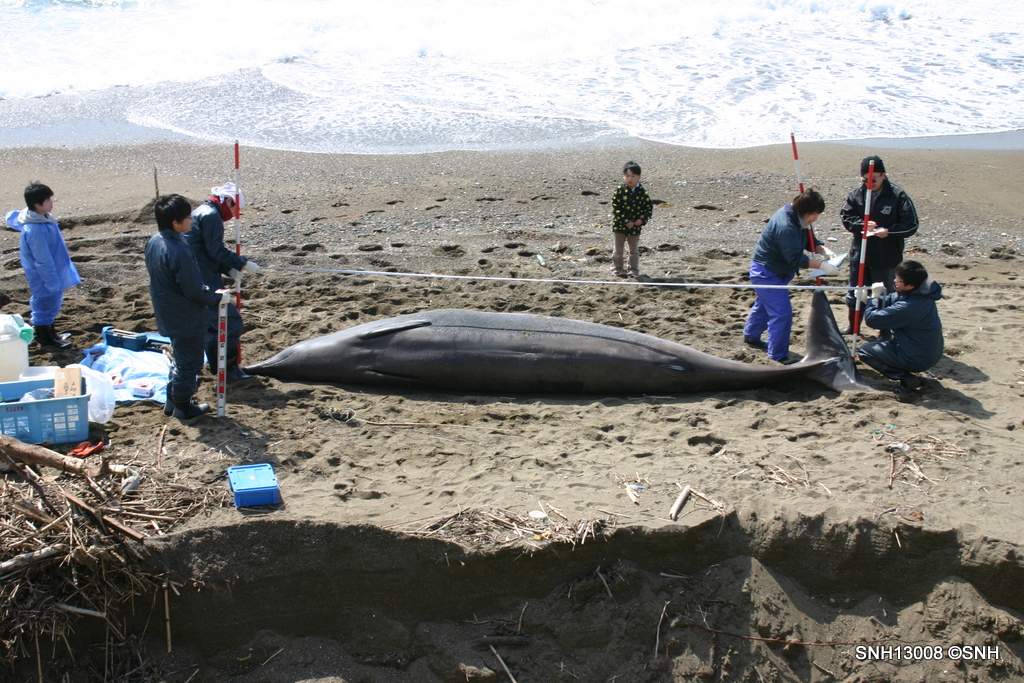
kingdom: Animalia
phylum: Chordata
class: Mammalia
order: Cetacea
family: Hyperoodontidae
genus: Mesoplodon
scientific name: Mesoplodon stejnegeri
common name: Stejneger's beaked whale
